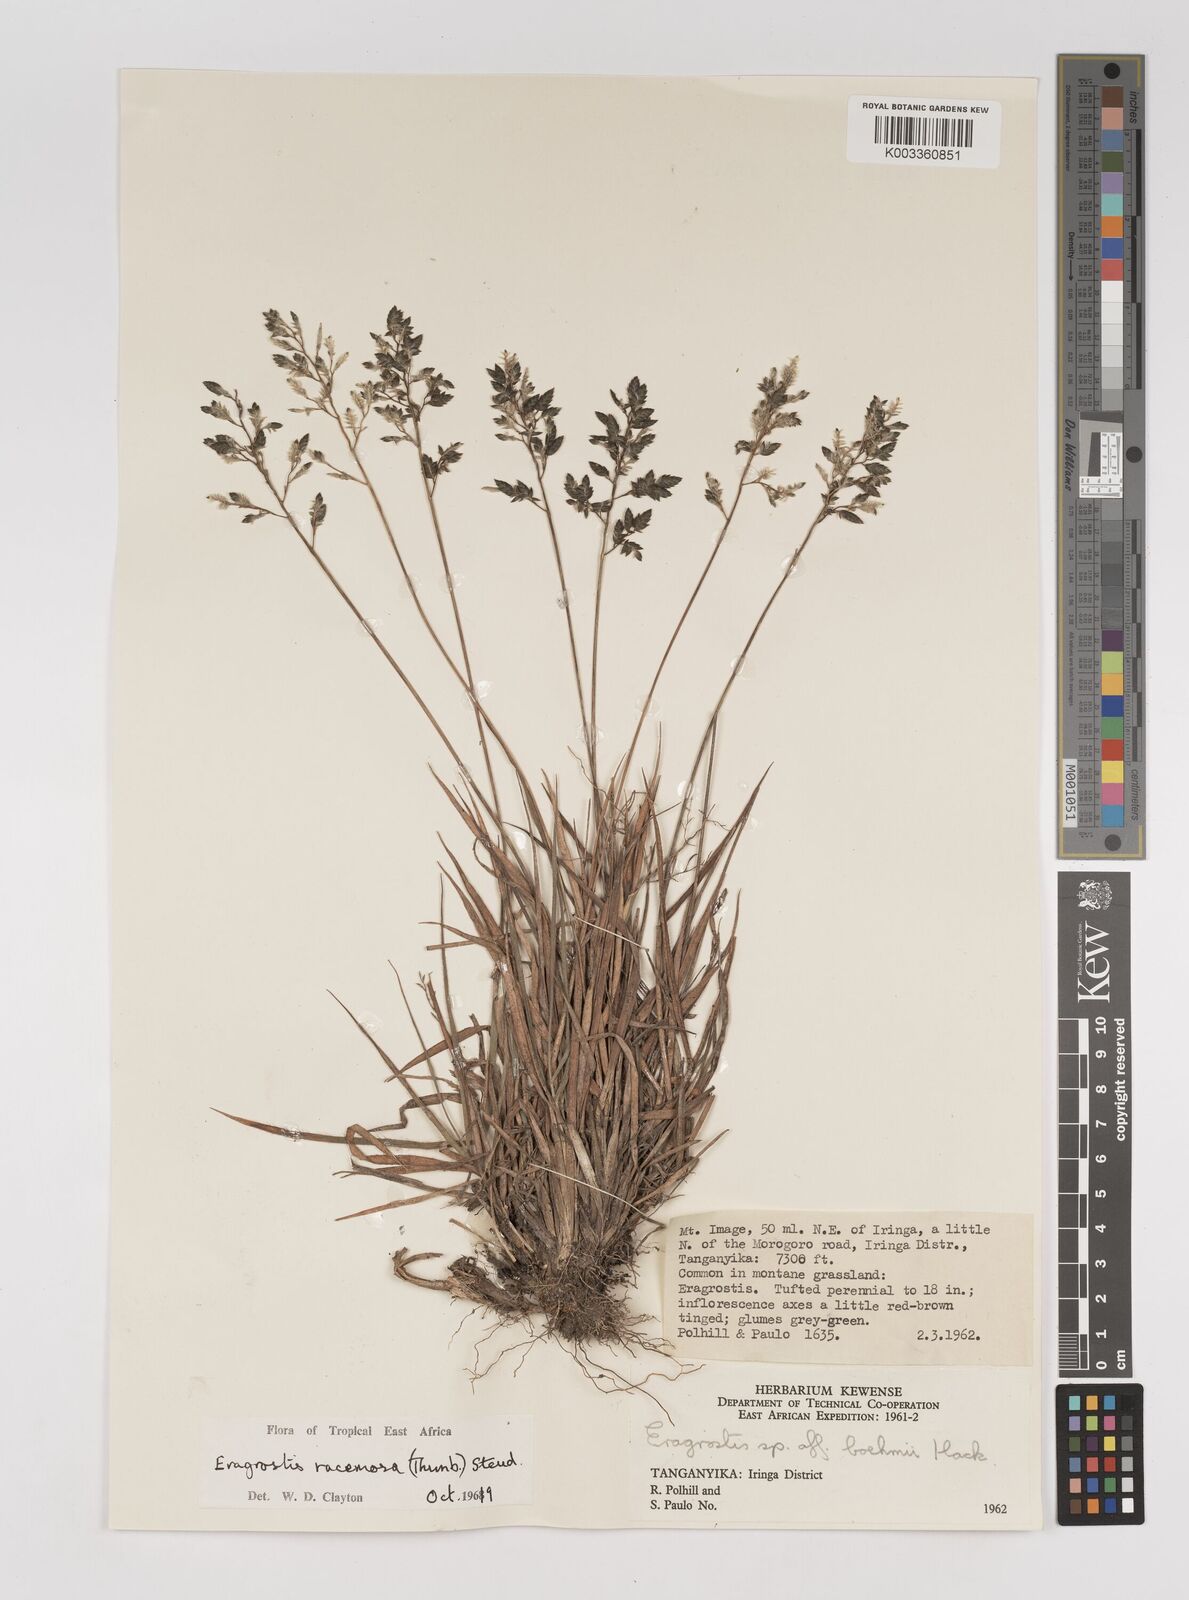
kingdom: Plantae
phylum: Tracheophyta
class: Liliopsida
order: Poales
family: Poaceae
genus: Eragrostis
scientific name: Eragrostis racemosa
